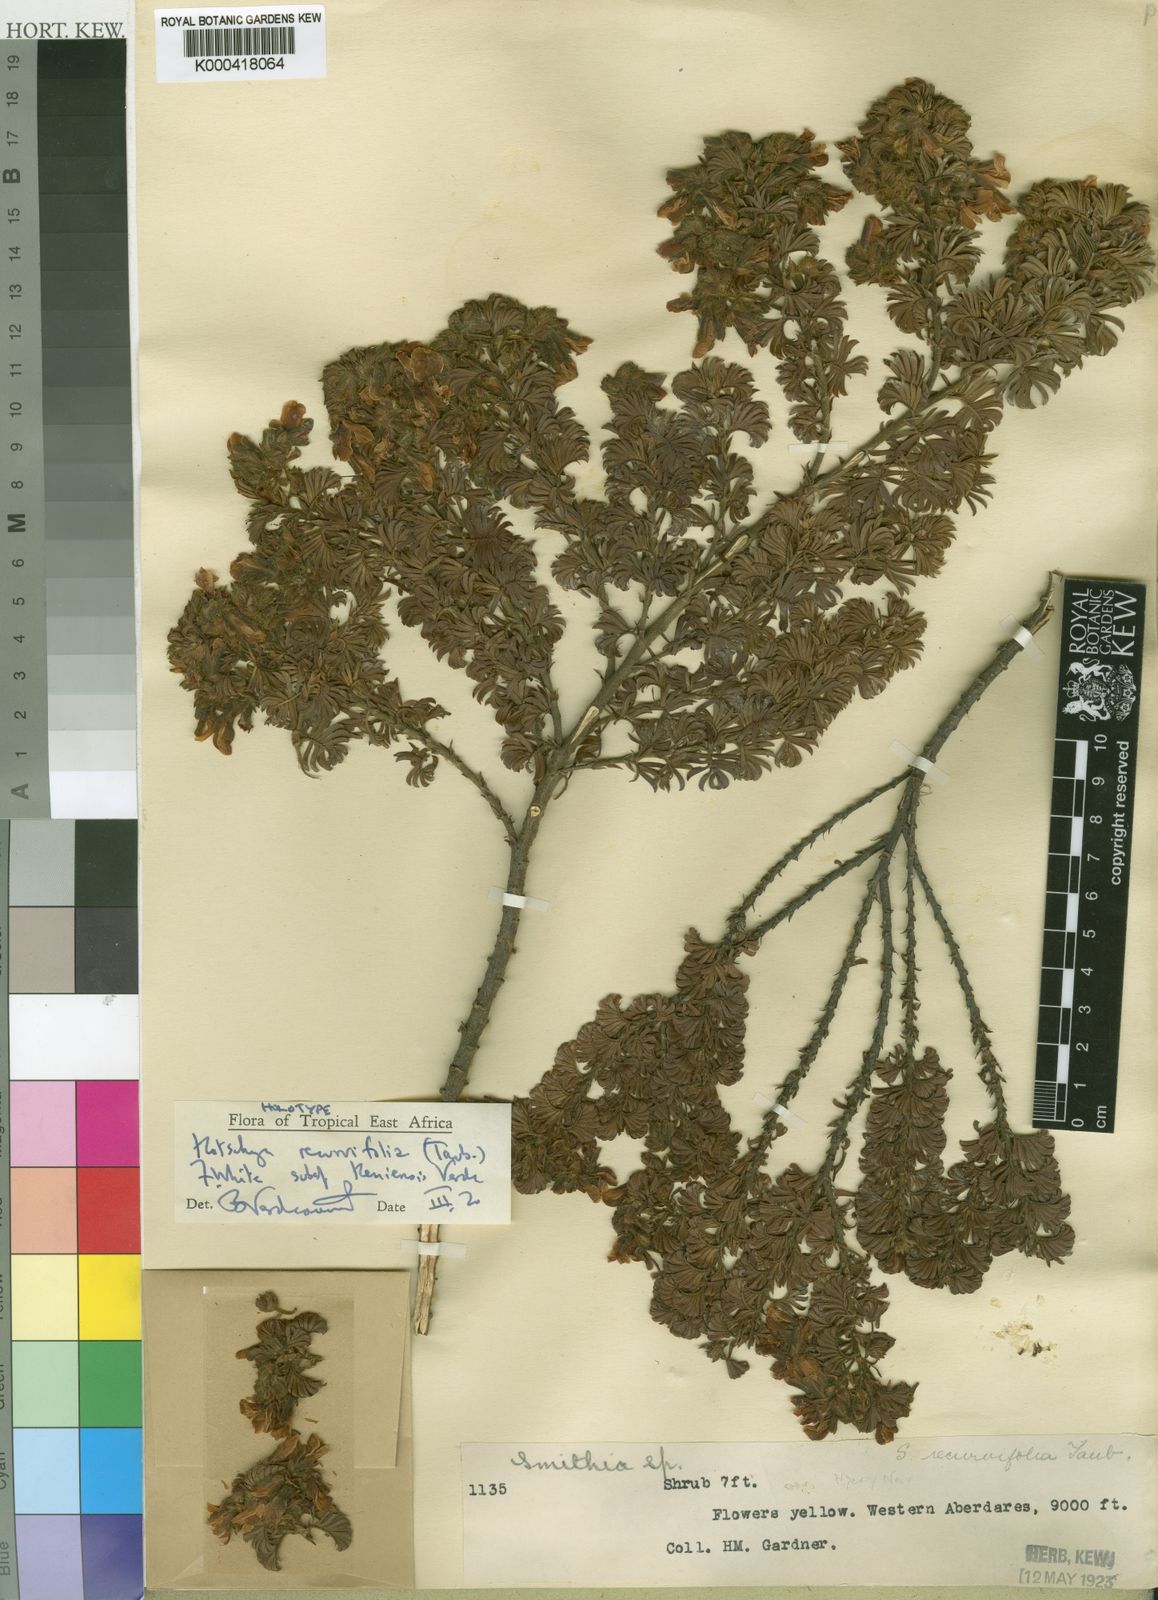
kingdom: Plantae
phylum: Tracheophyta
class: Magnoliopsida
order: Fabales
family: Fabaceae
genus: Kotschya
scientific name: Kotschya recurvifolia
